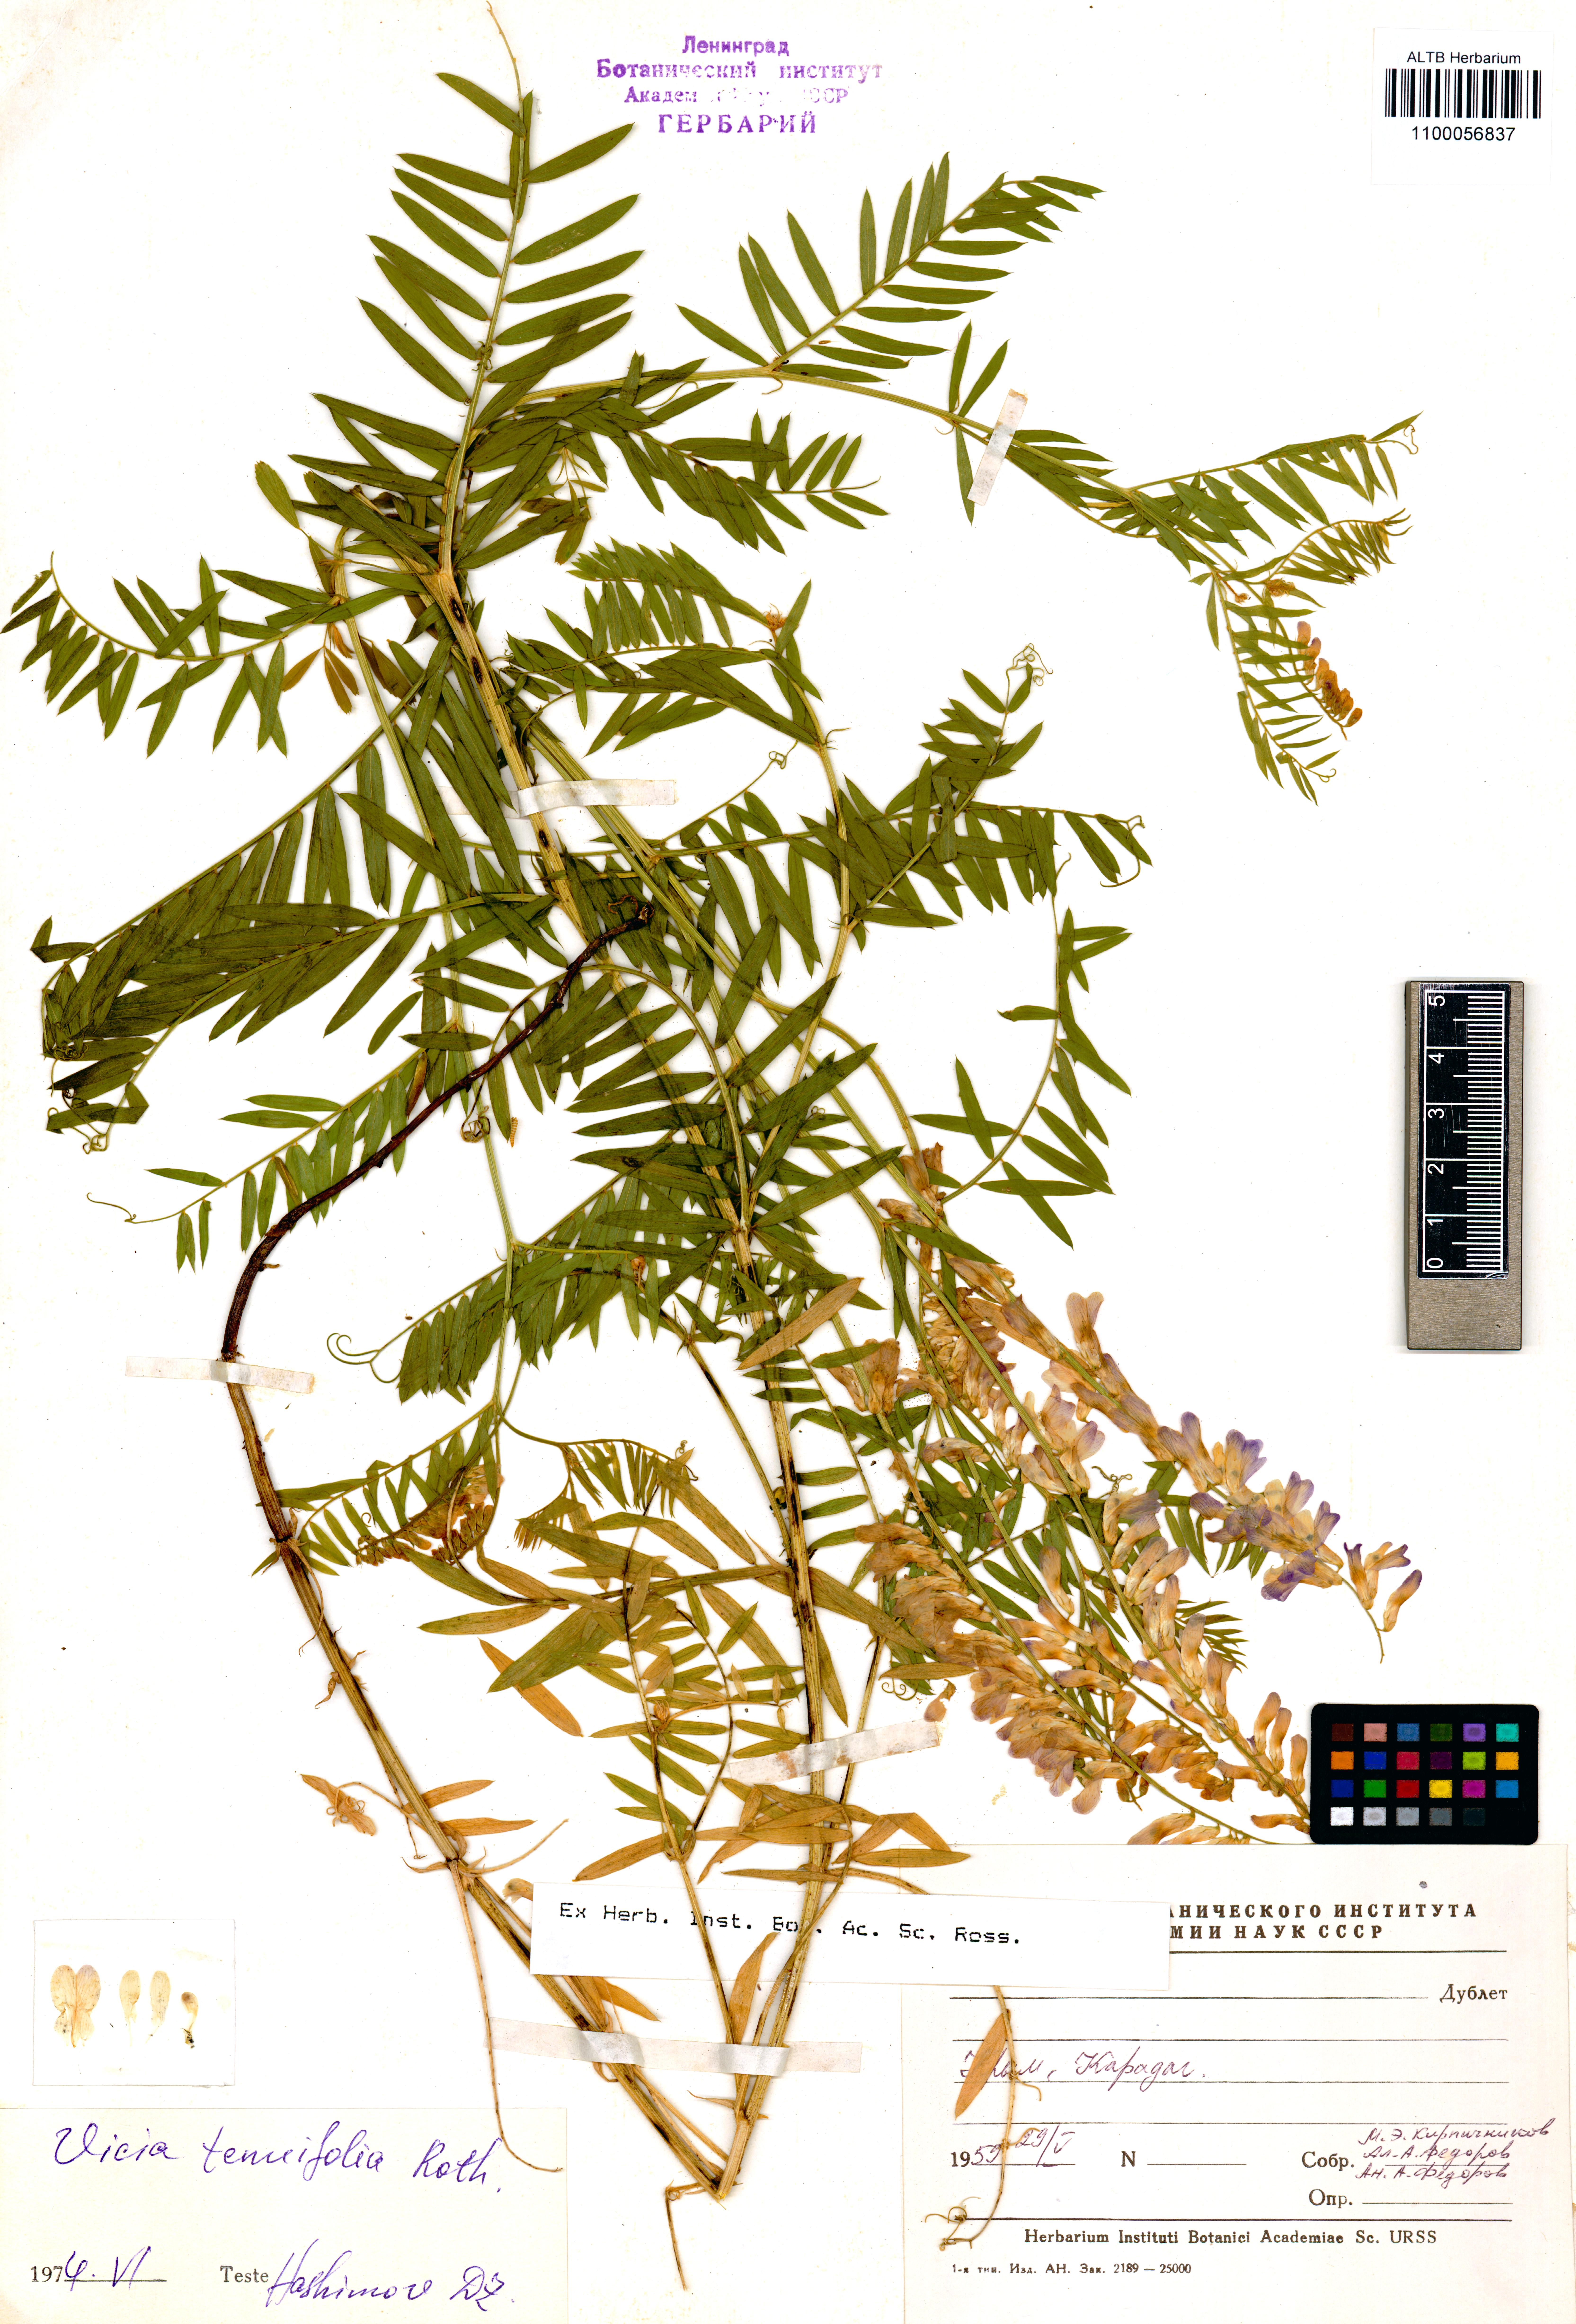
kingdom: Plantae
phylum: Tracheophyta
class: Magnoliopsida
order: Fabales
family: Fabaceae
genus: Vicia
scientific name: Vicia tenuifolia
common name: Fine-leaved vetch
